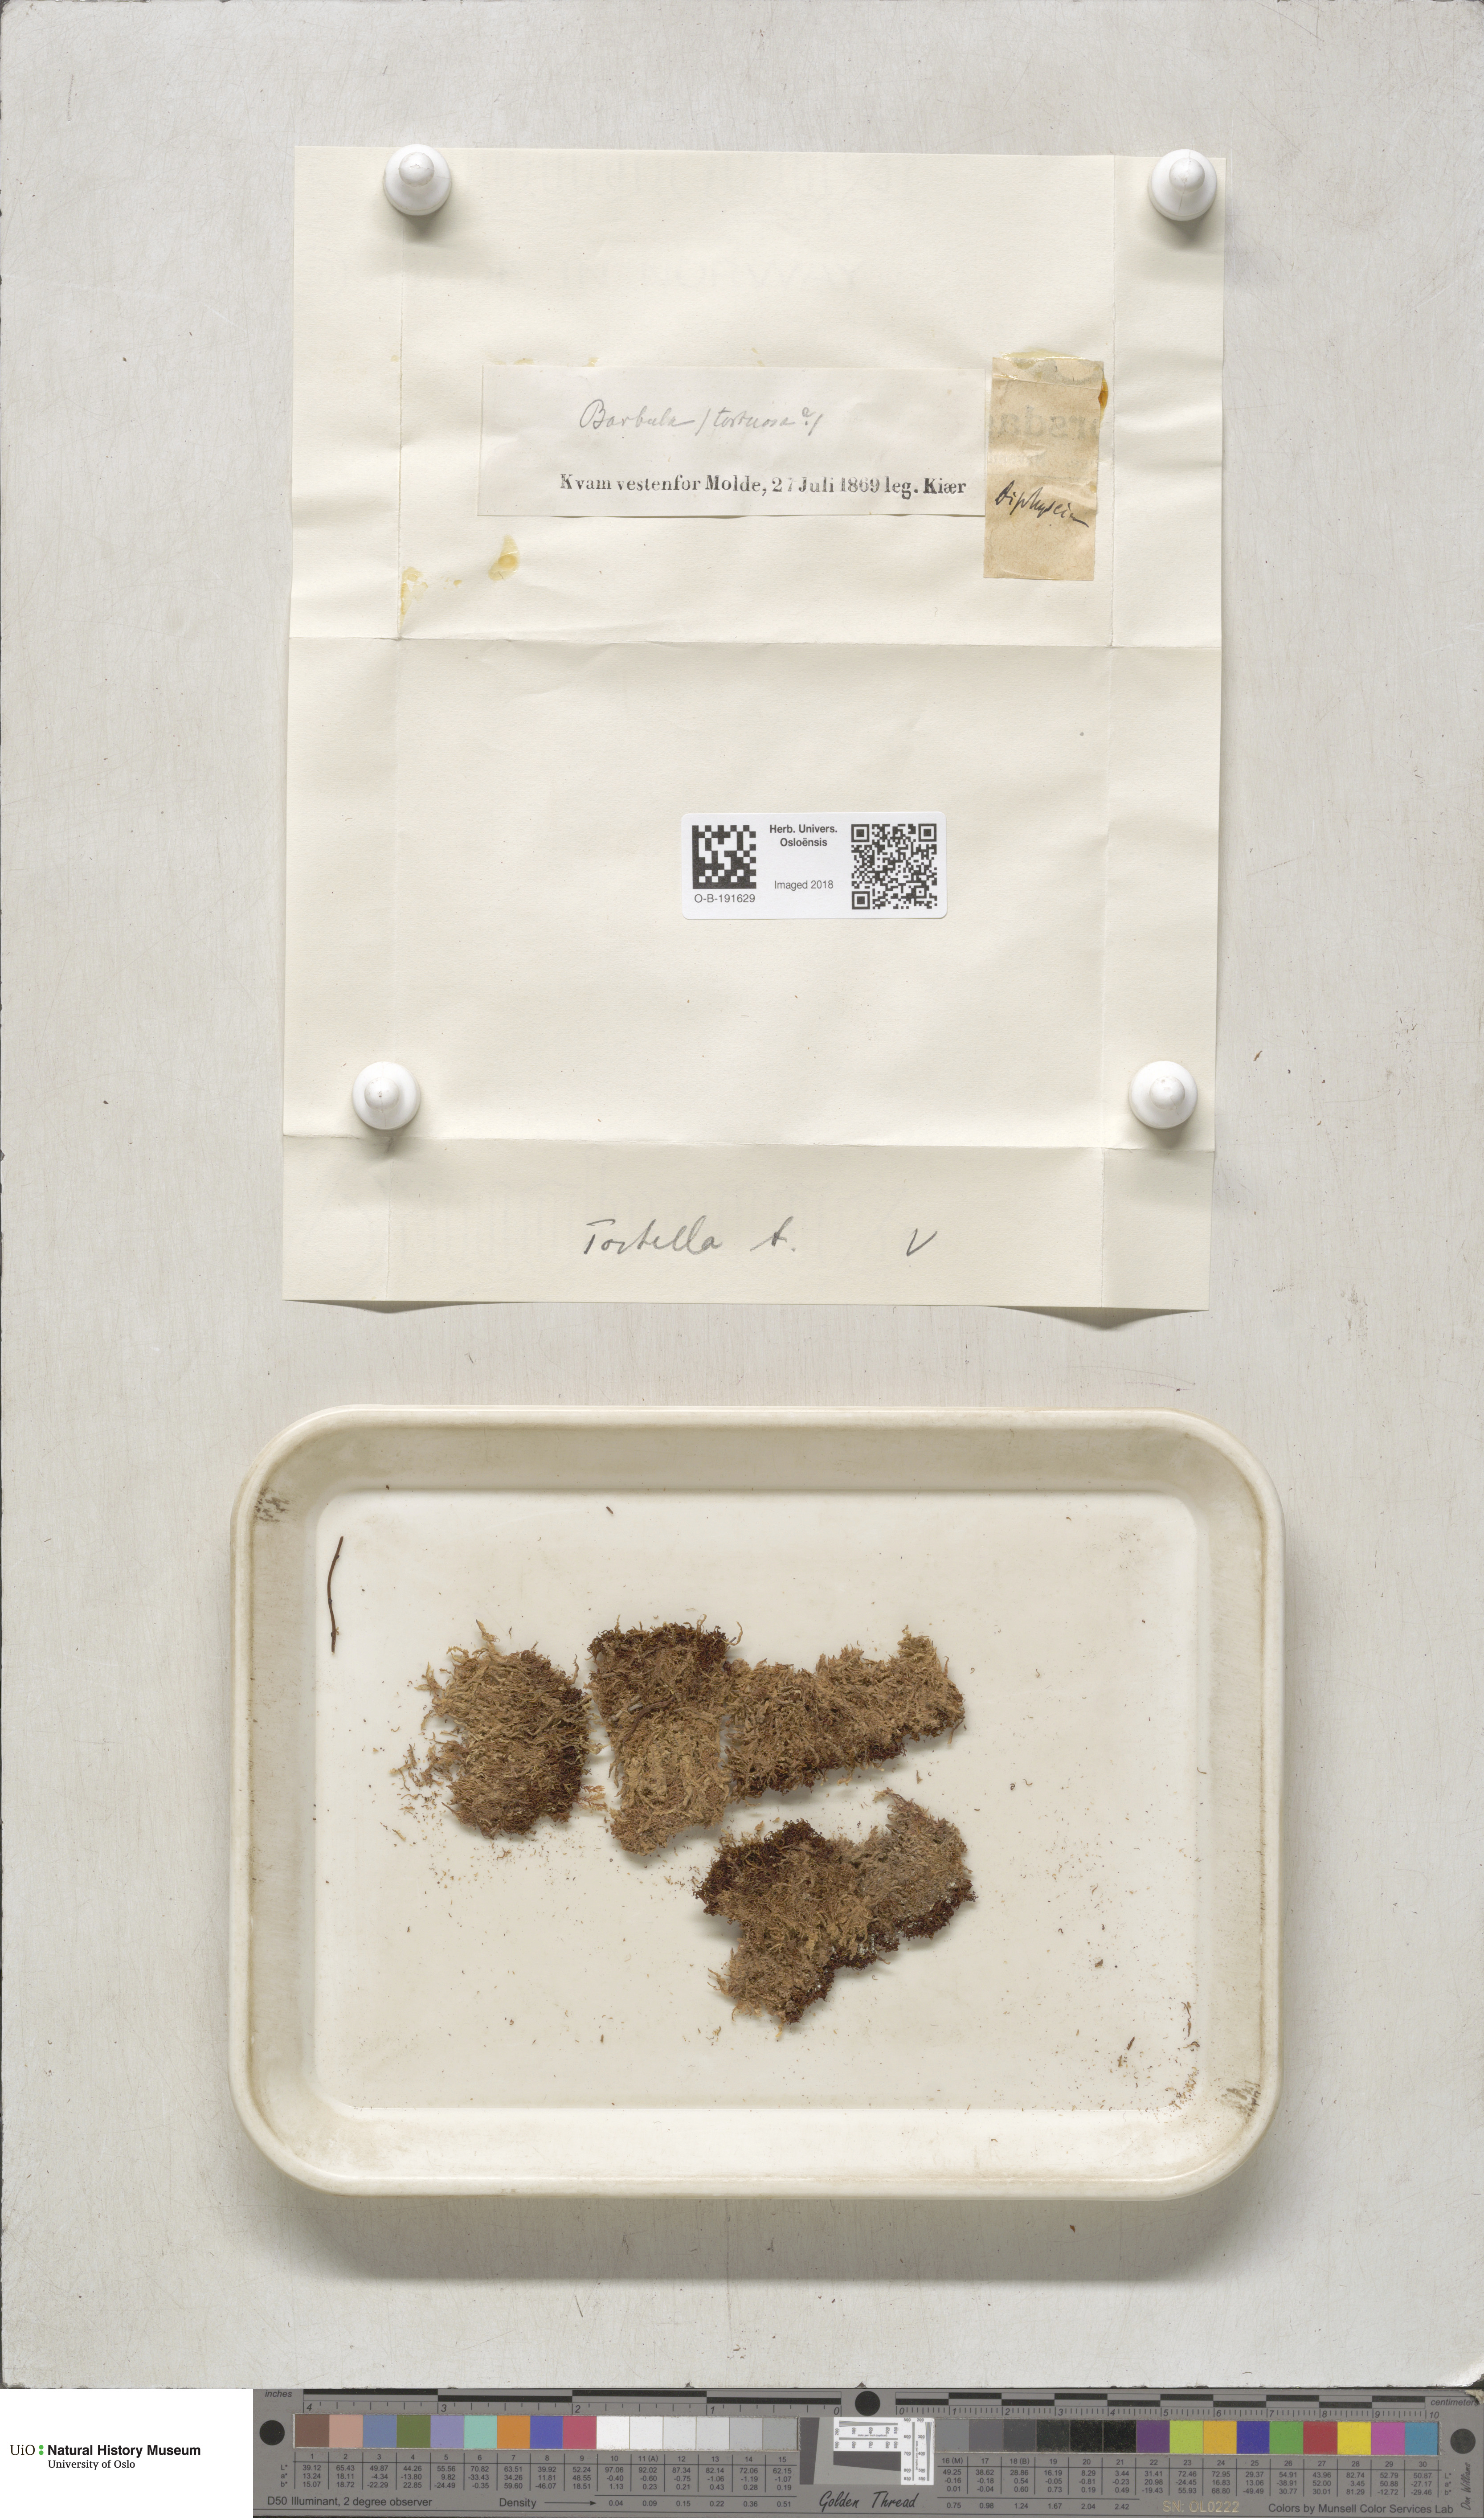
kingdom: Plantae
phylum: Bryophyta
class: Bryopsida
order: Pottiales
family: Pottiaceae
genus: Tortella
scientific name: Tortella tortuosa
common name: Frizzled crisp moss
